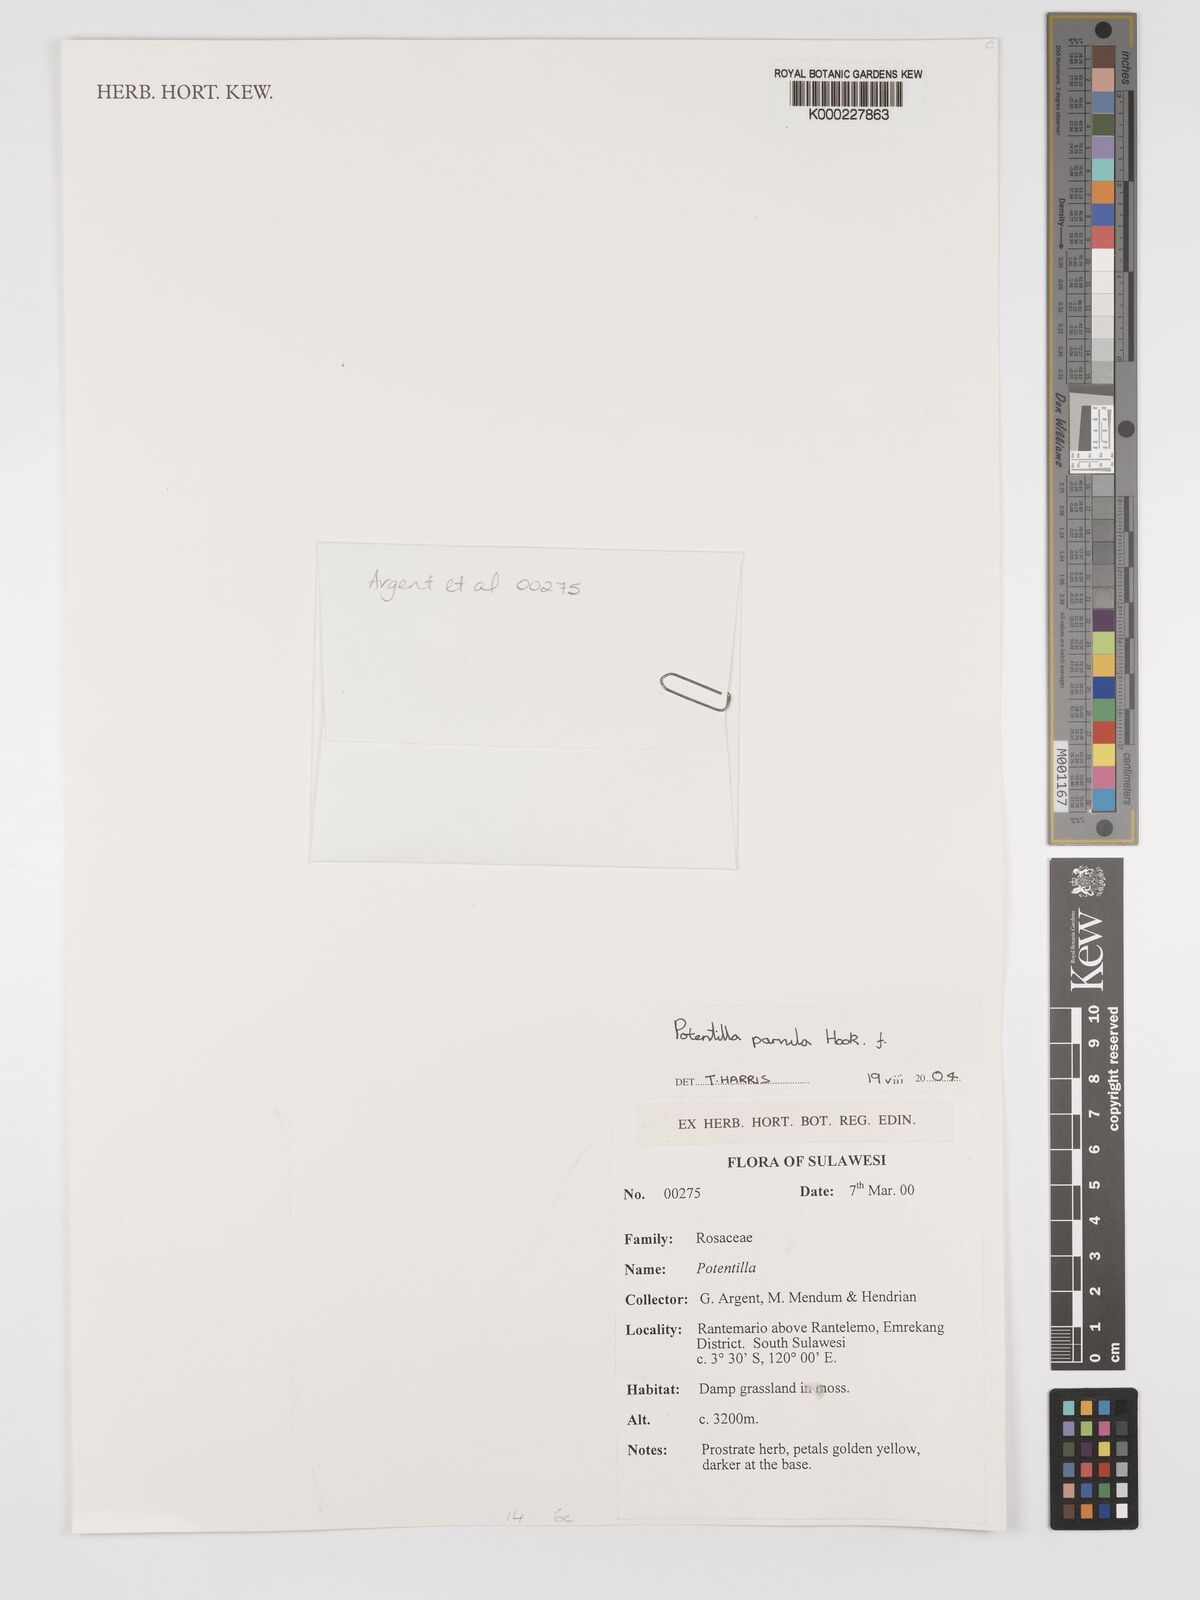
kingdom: Plantae
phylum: Tracheophyta
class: Magnoliopsida
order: Rosales
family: Rosaceae
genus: Potentilla
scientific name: Potentilla
